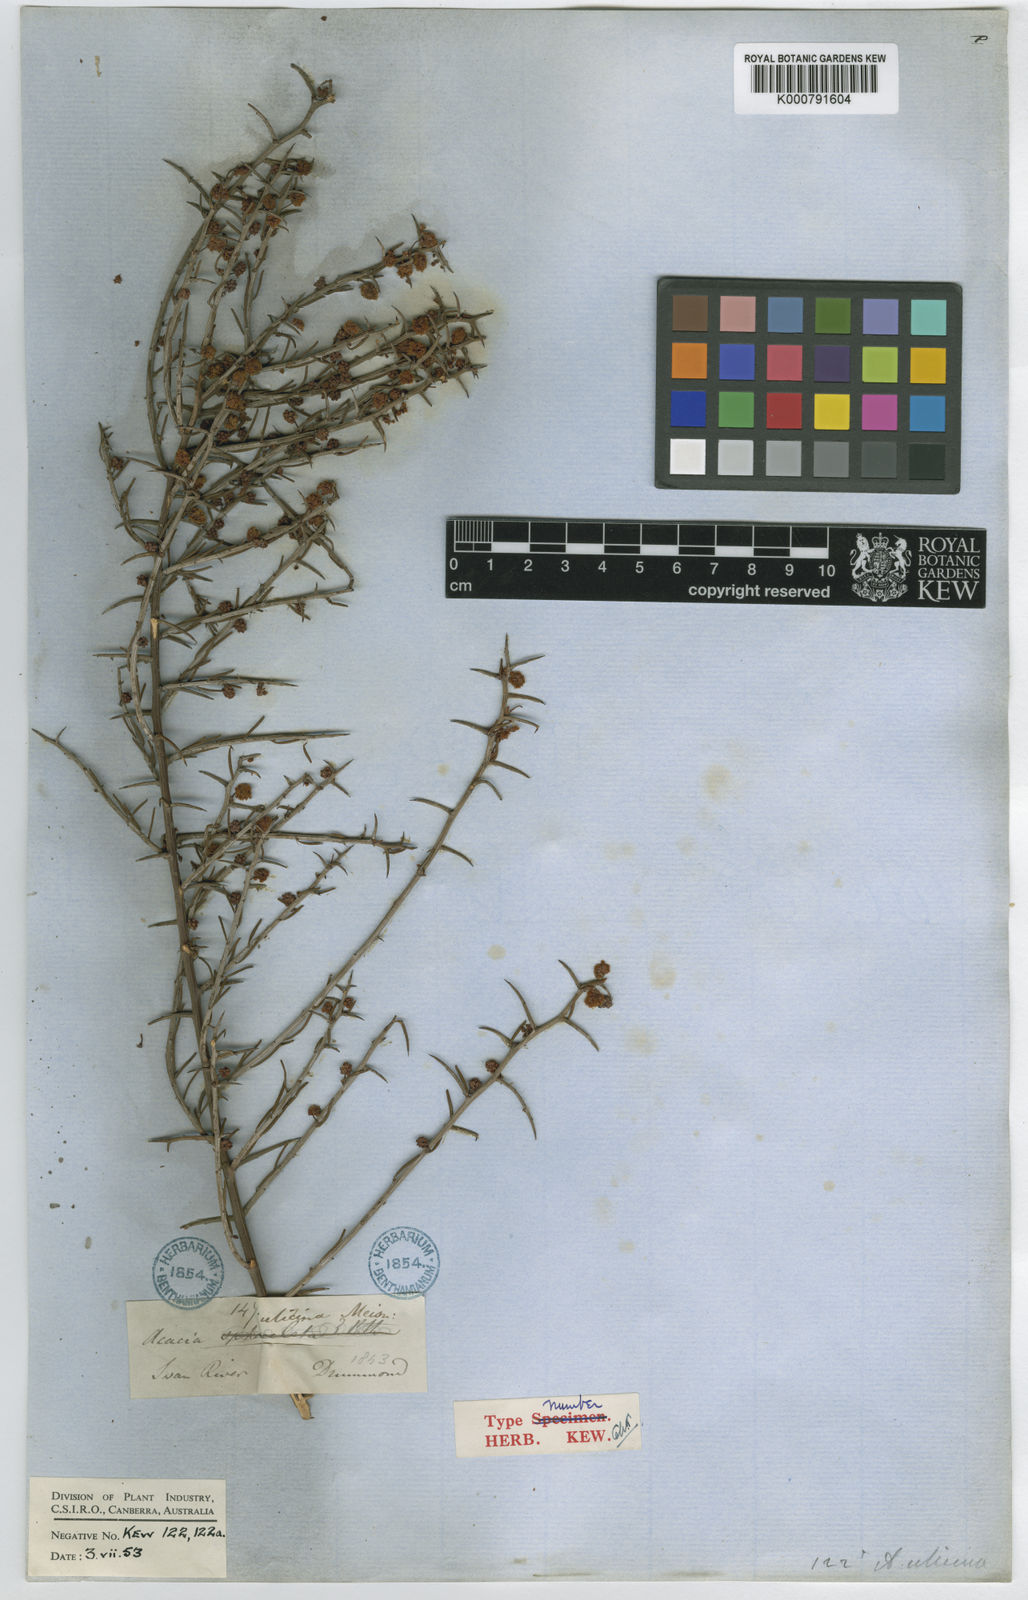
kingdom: Plantae
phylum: Tracheophyta
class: Magnoliopsida
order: Fabales
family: Fabaceae
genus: Acacia
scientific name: Acacia ulicina
